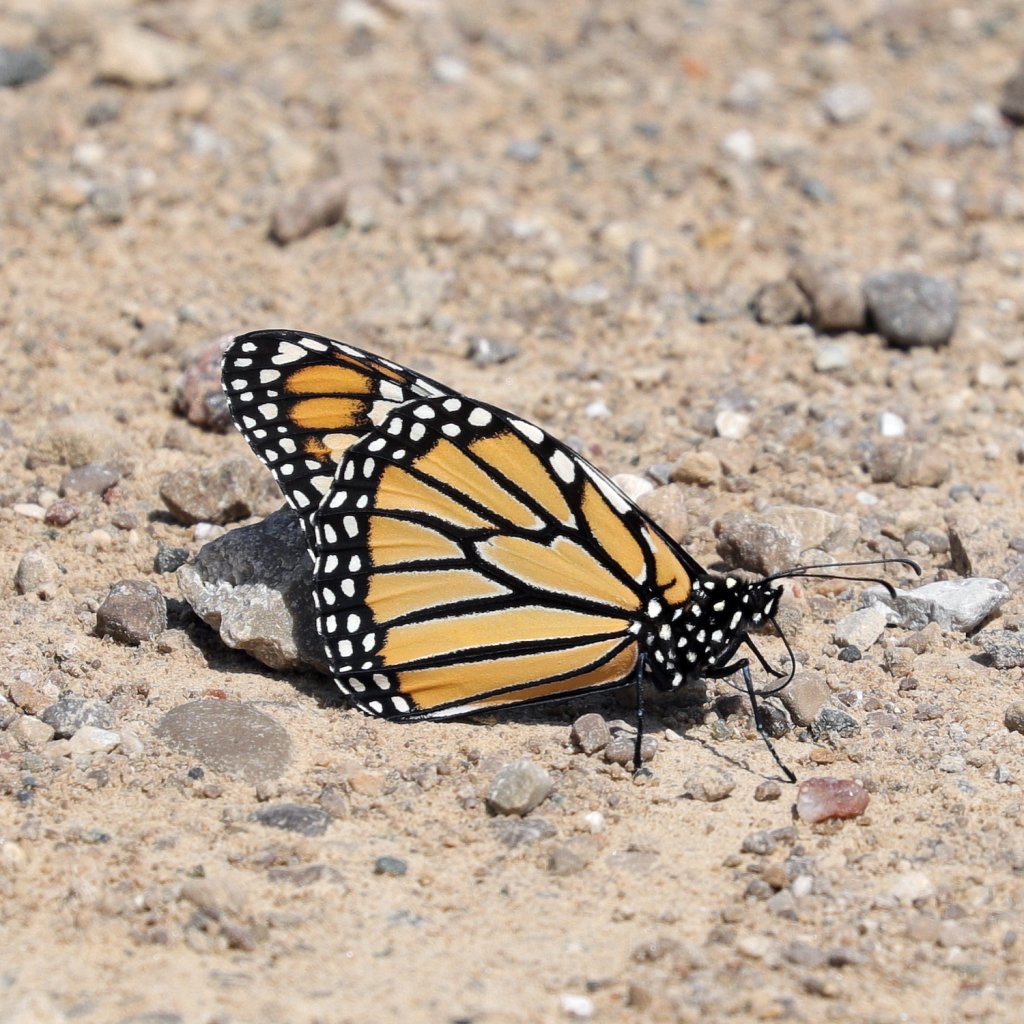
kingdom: Animalia
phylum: Arthropoda
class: Insecta
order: Lepidoptera
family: Nymphalidae
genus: Danaus
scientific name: Danaus plexippus
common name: Monarch
